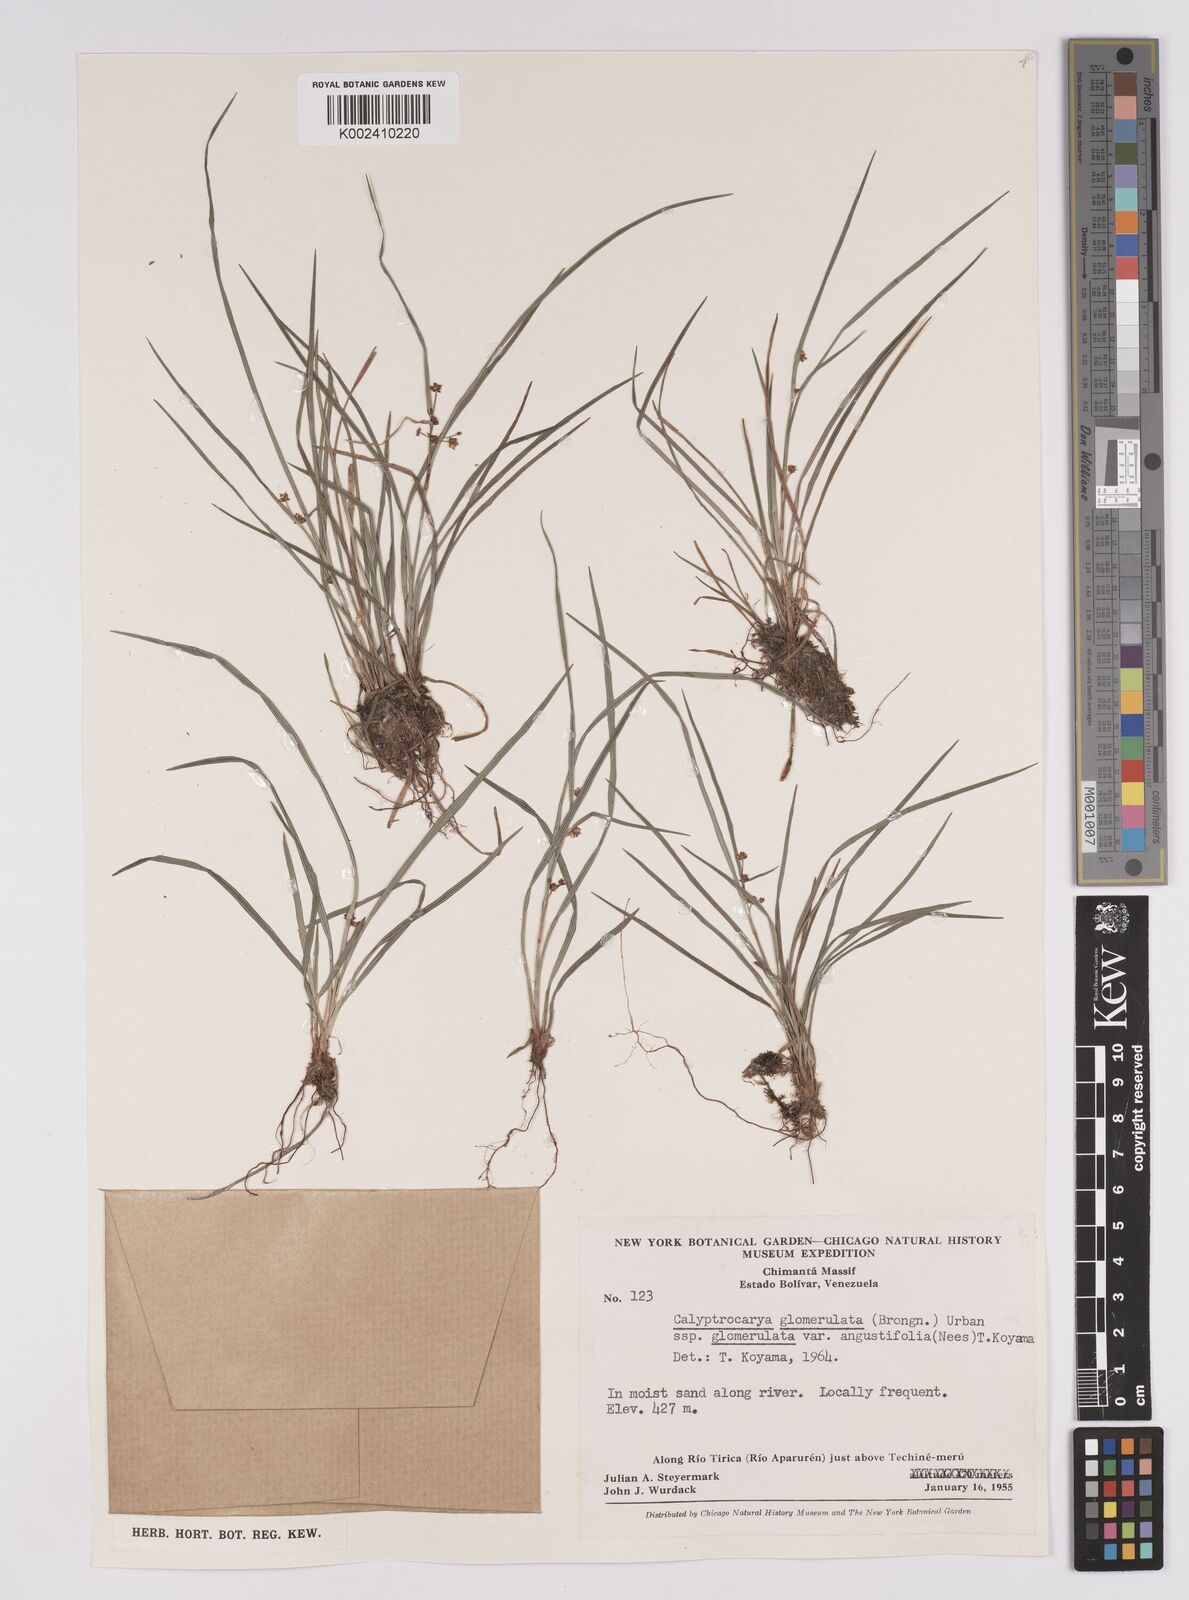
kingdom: Plantae
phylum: Tracheophyta
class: Liliopsida
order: Poales
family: Cyperaceae
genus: Calyptrocarya
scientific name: Calyptrocarya glomerulata
